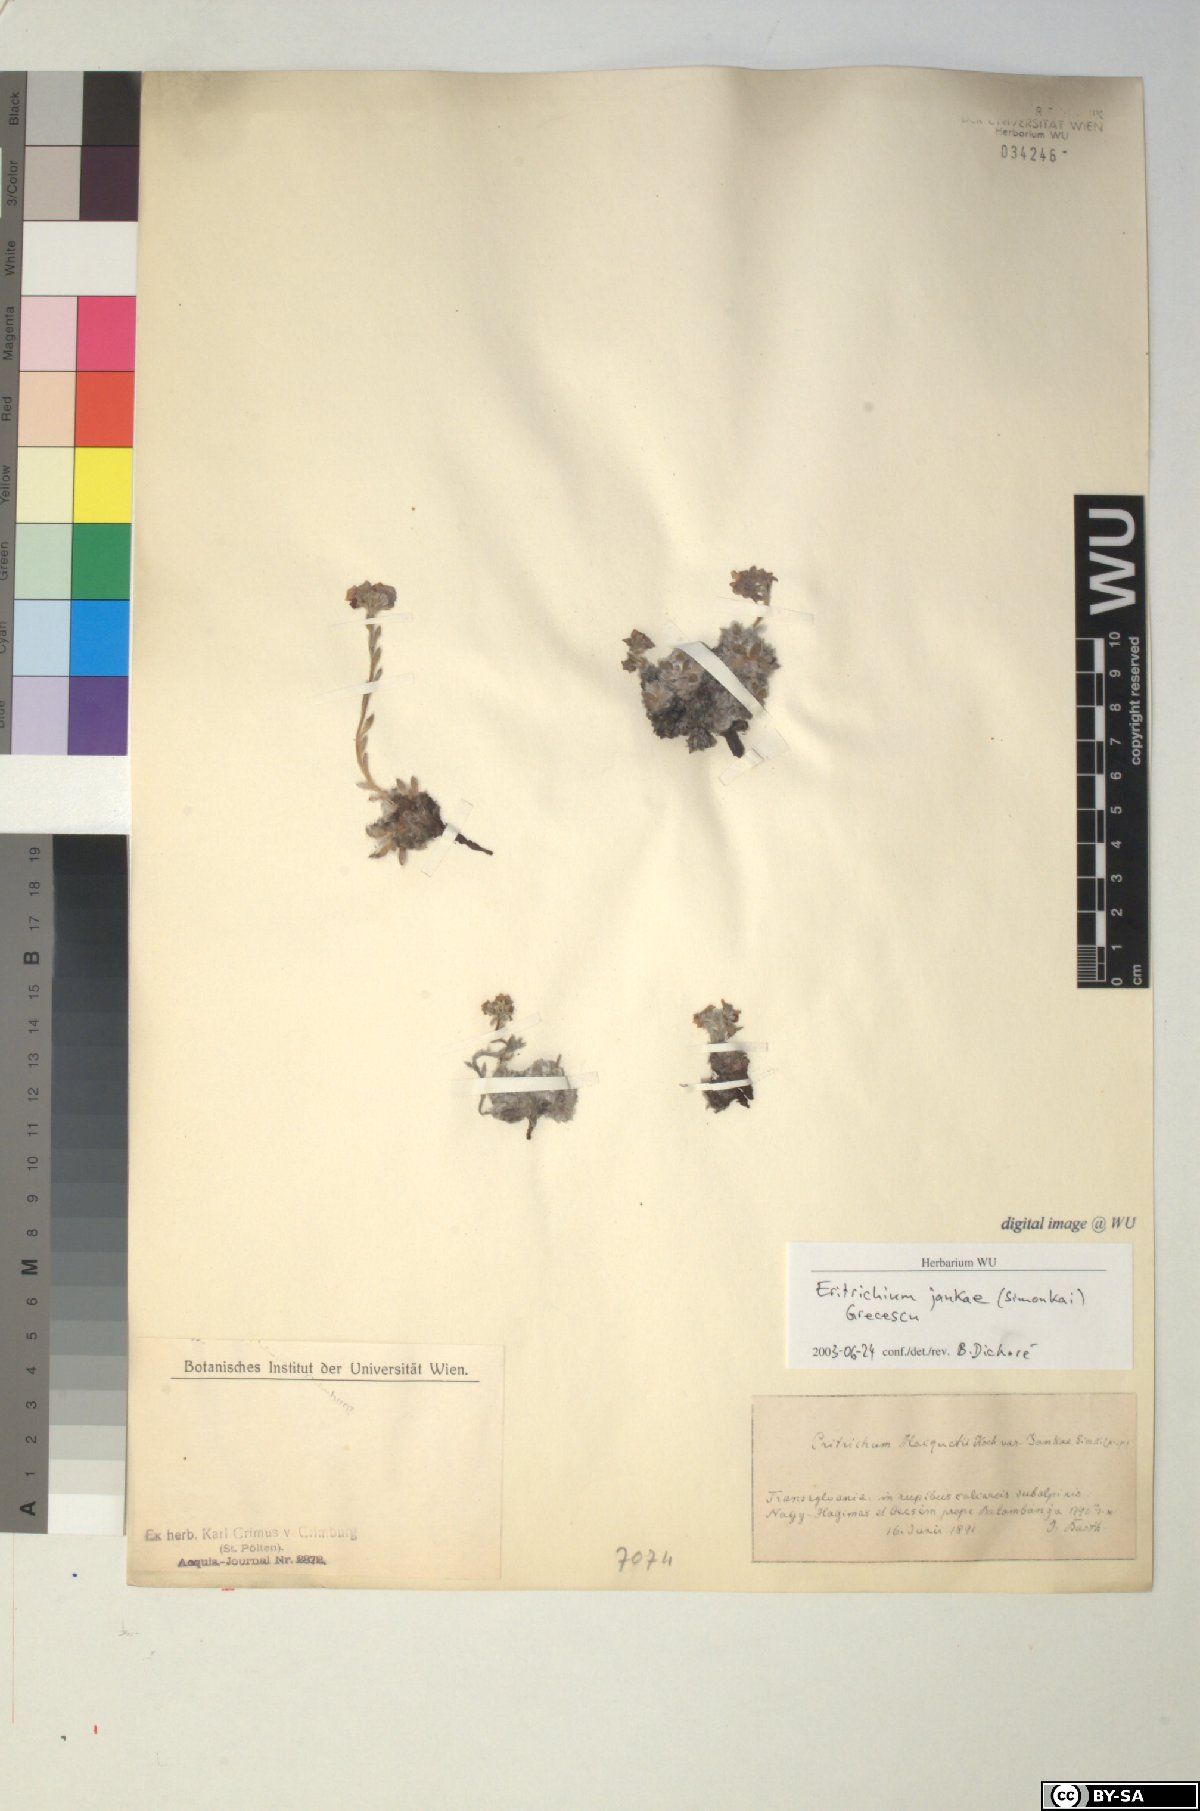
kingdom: Plantae
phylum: Tracheophyta
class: Magnoliopsida
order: Boraginales
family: Boraginaceae
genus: Eritrichium
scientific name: Eritrichium nanum
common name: King-of-the-alps
